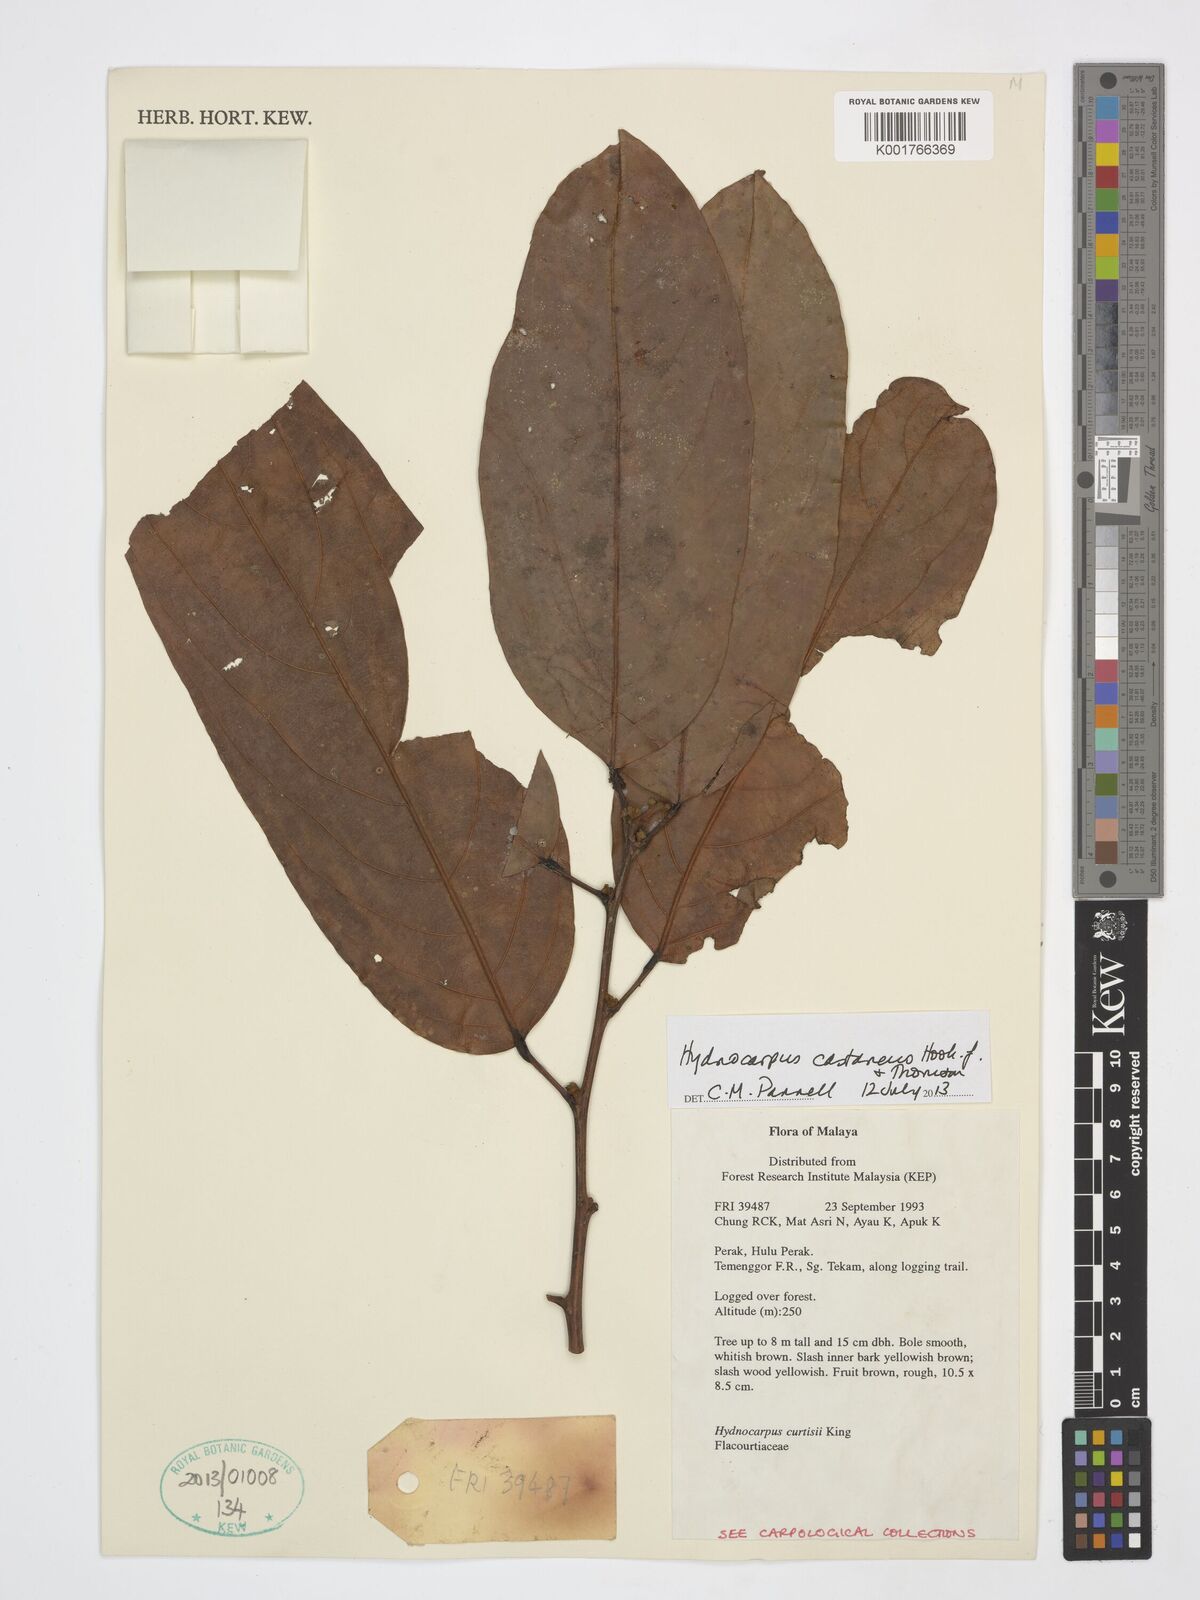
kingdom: Plantae
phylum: Tracheophyta
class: Magnoliopsida
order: Malpighiales
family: Achariaceae
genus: Hydnocarpus
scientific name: Hydnocarpus castaneus
